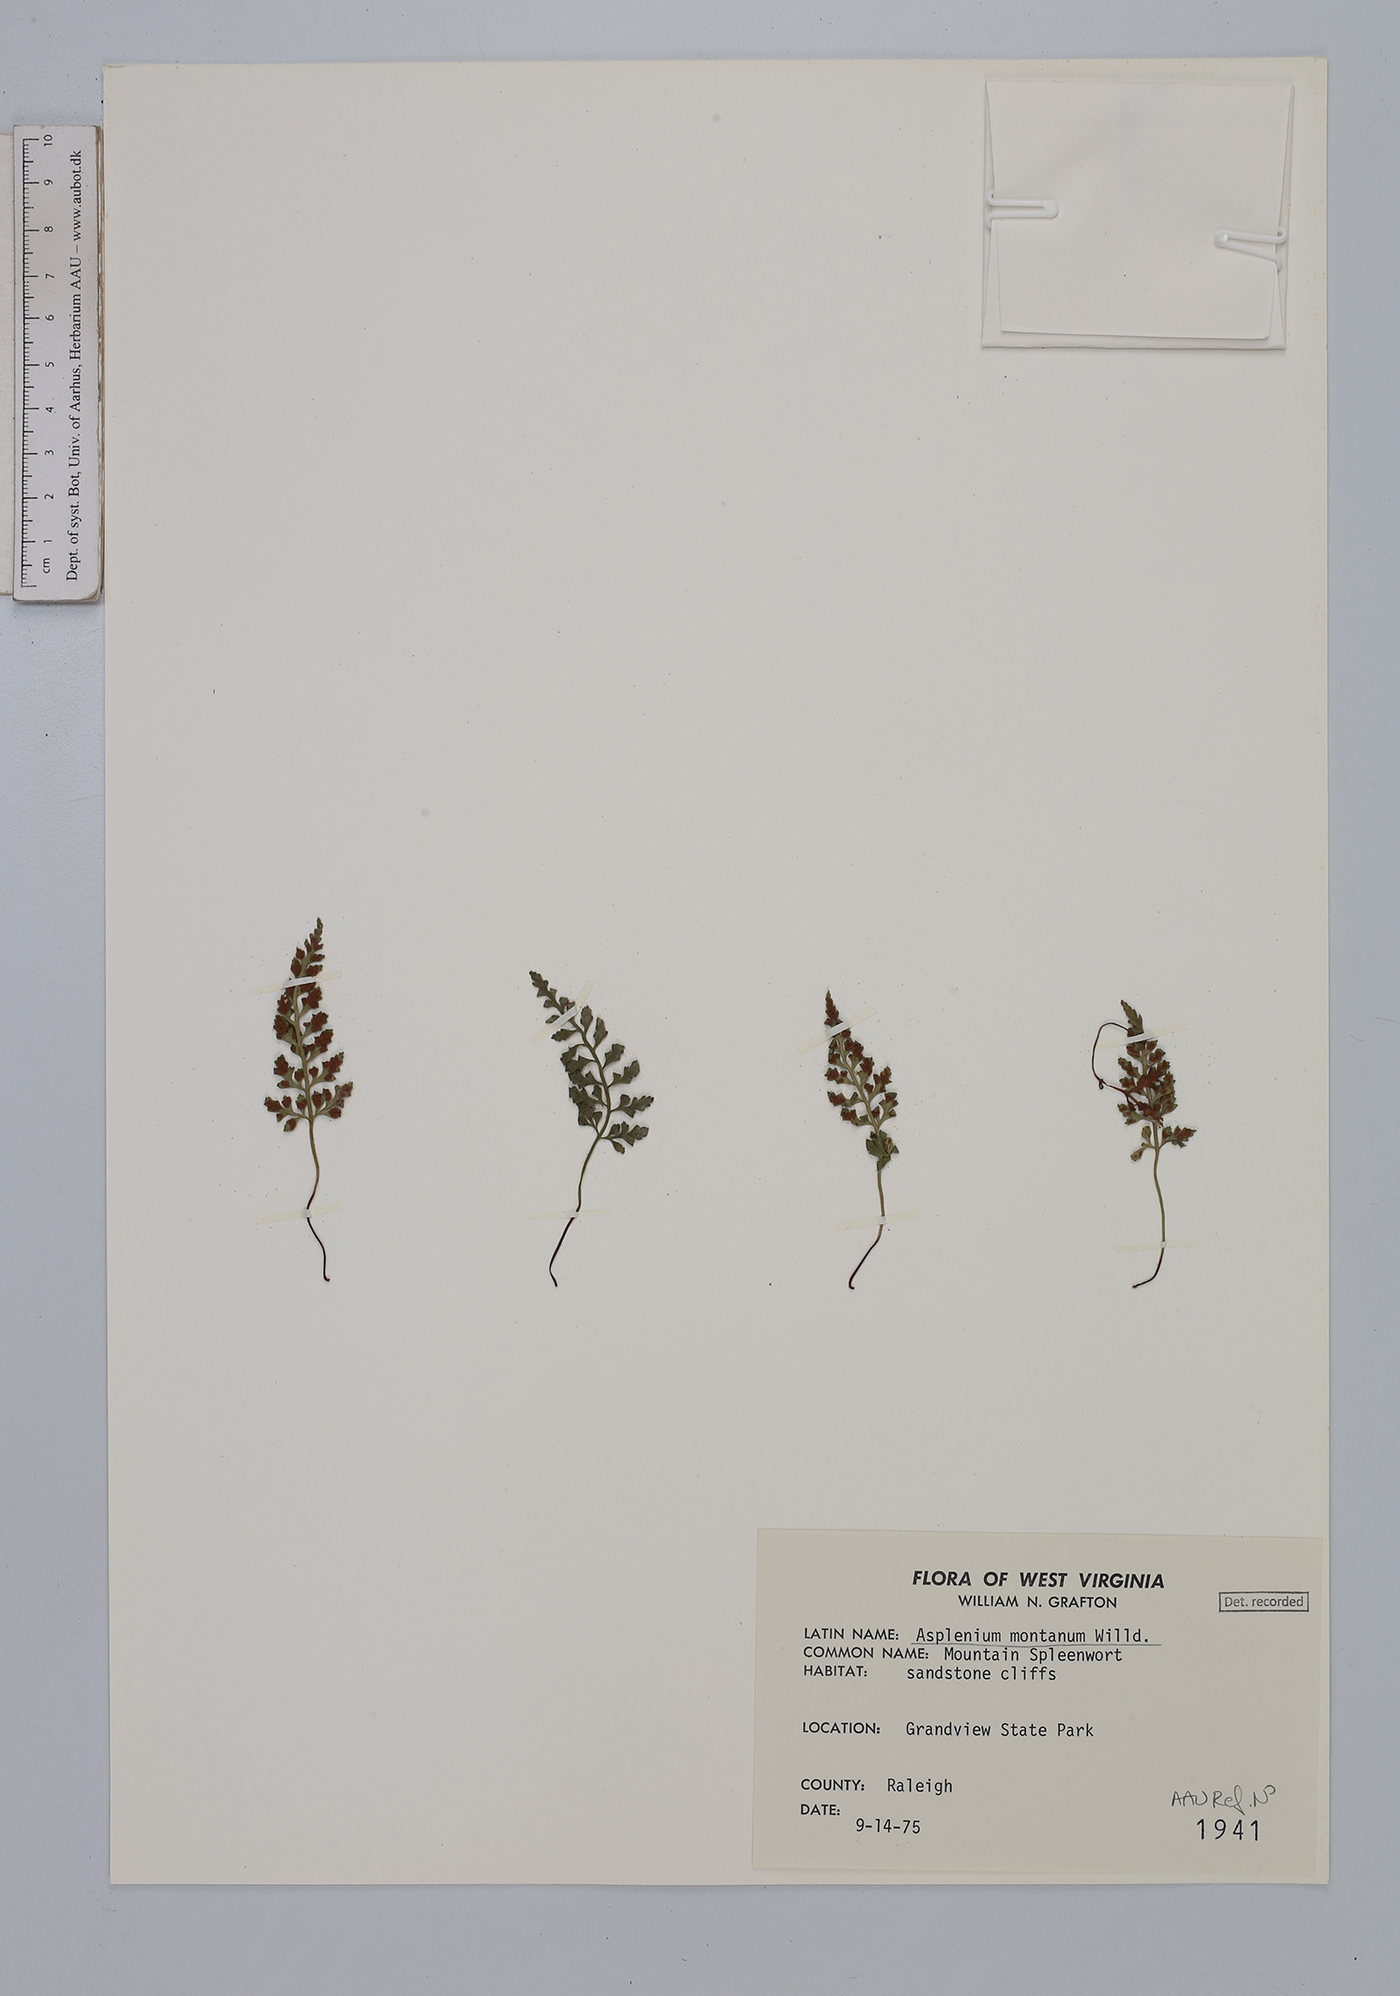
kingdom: Plantae
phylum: Tracheophyta
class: Polypodiopsida
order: Polypodiales
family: Aspleniaceae
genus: Asplenium
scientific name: Asplenium montanum
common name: Mountain spleenwort
